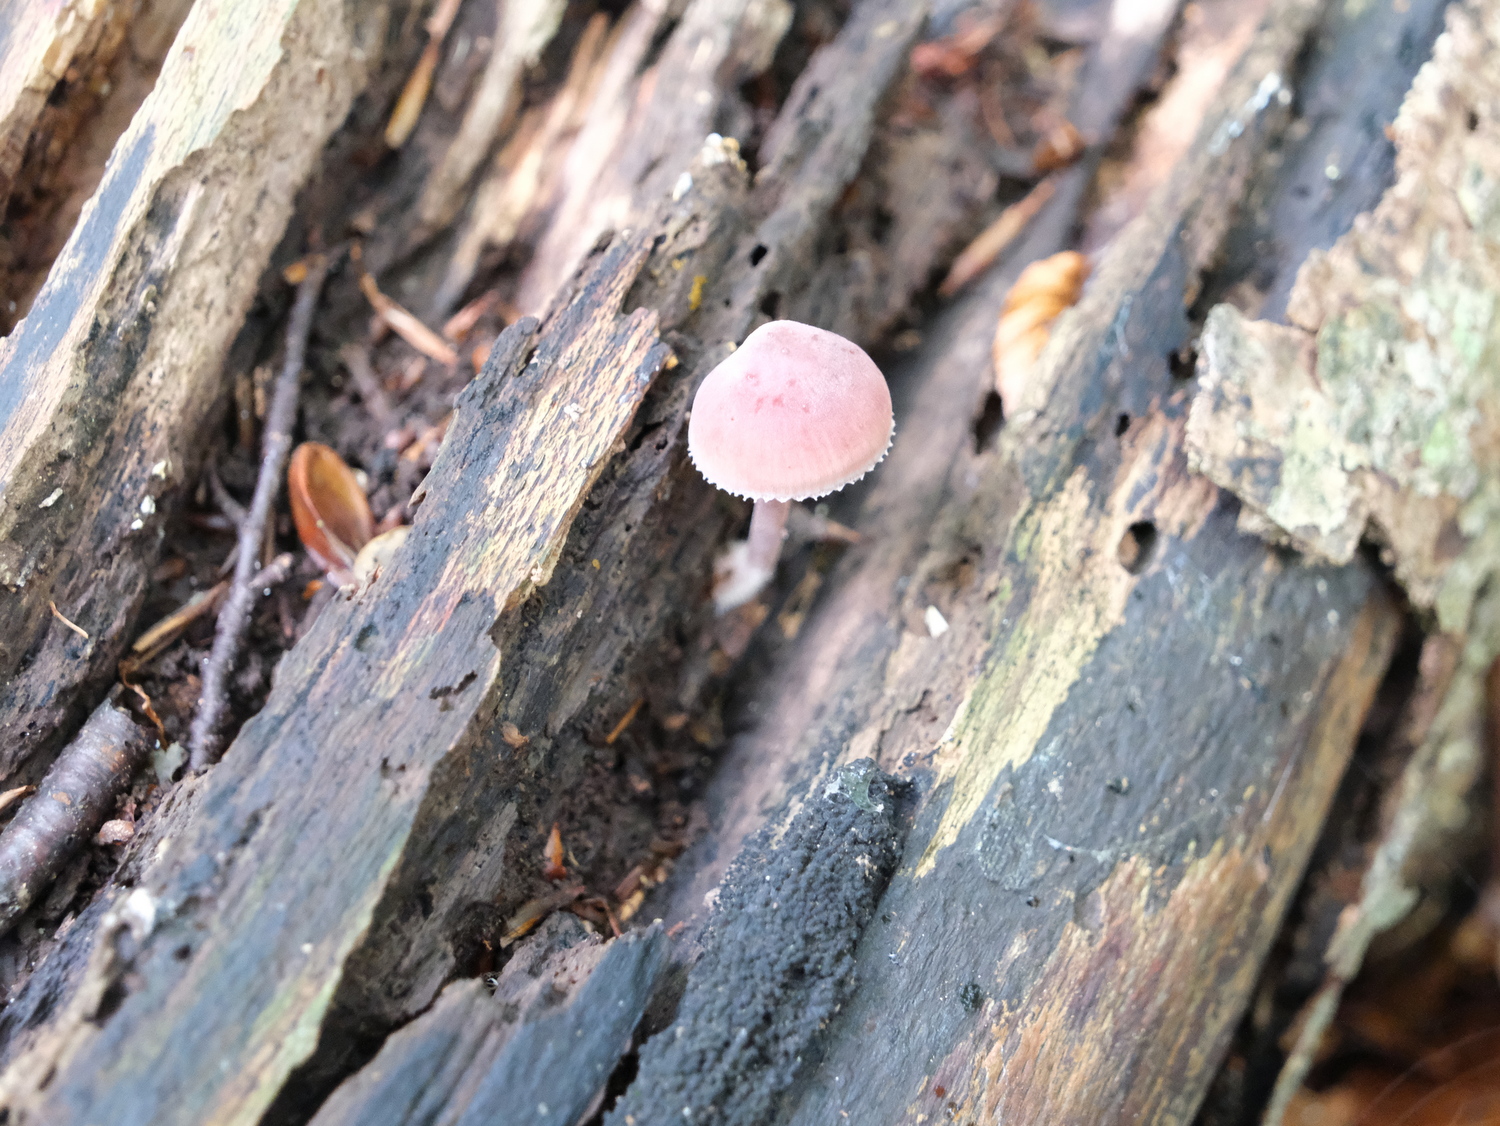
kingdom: Fungi
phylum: Basidiomycota
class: Agaricomycetes
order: Agaricales
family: Mycenaceae
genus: Mycena
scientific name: Mycena haematopus
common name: blødende huesvamp
